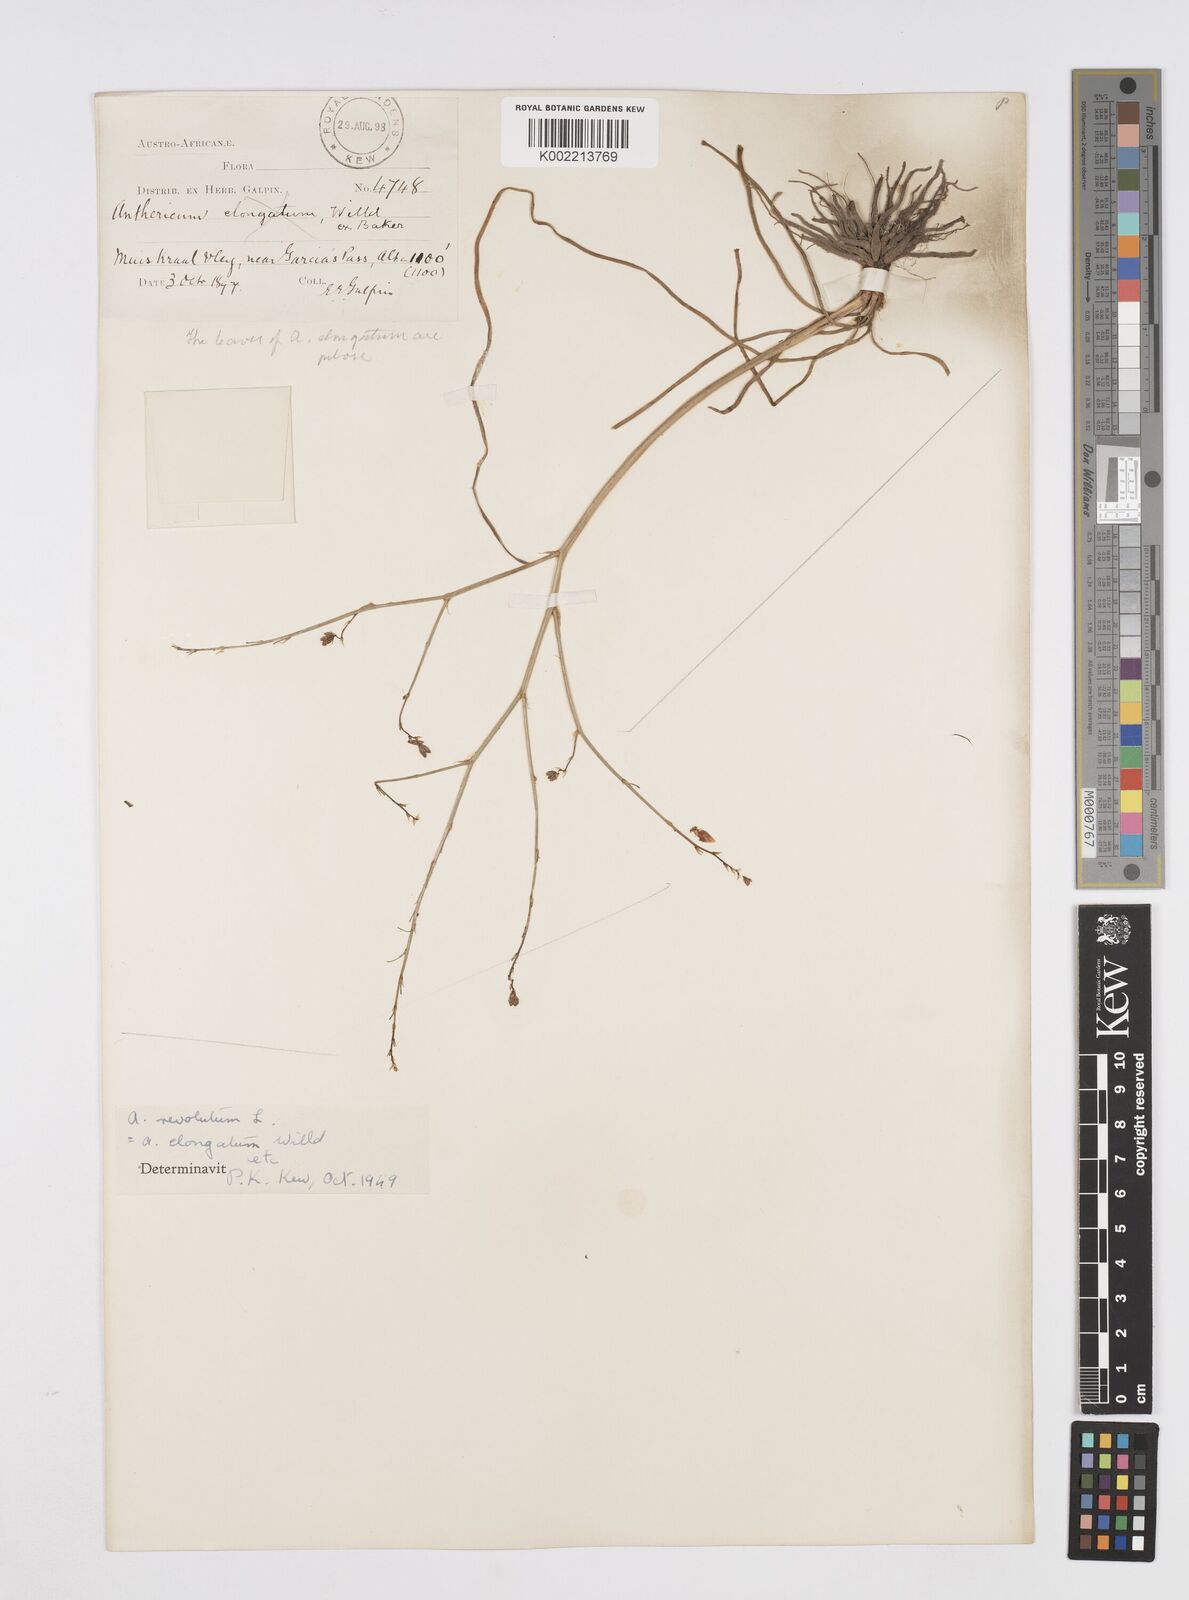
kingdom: Plantae
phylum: Tracheophyta
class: Liliopsida
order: Asparagales
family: Asphodelaceae
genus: Trachyandra
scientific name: Trachyandra revoluta
